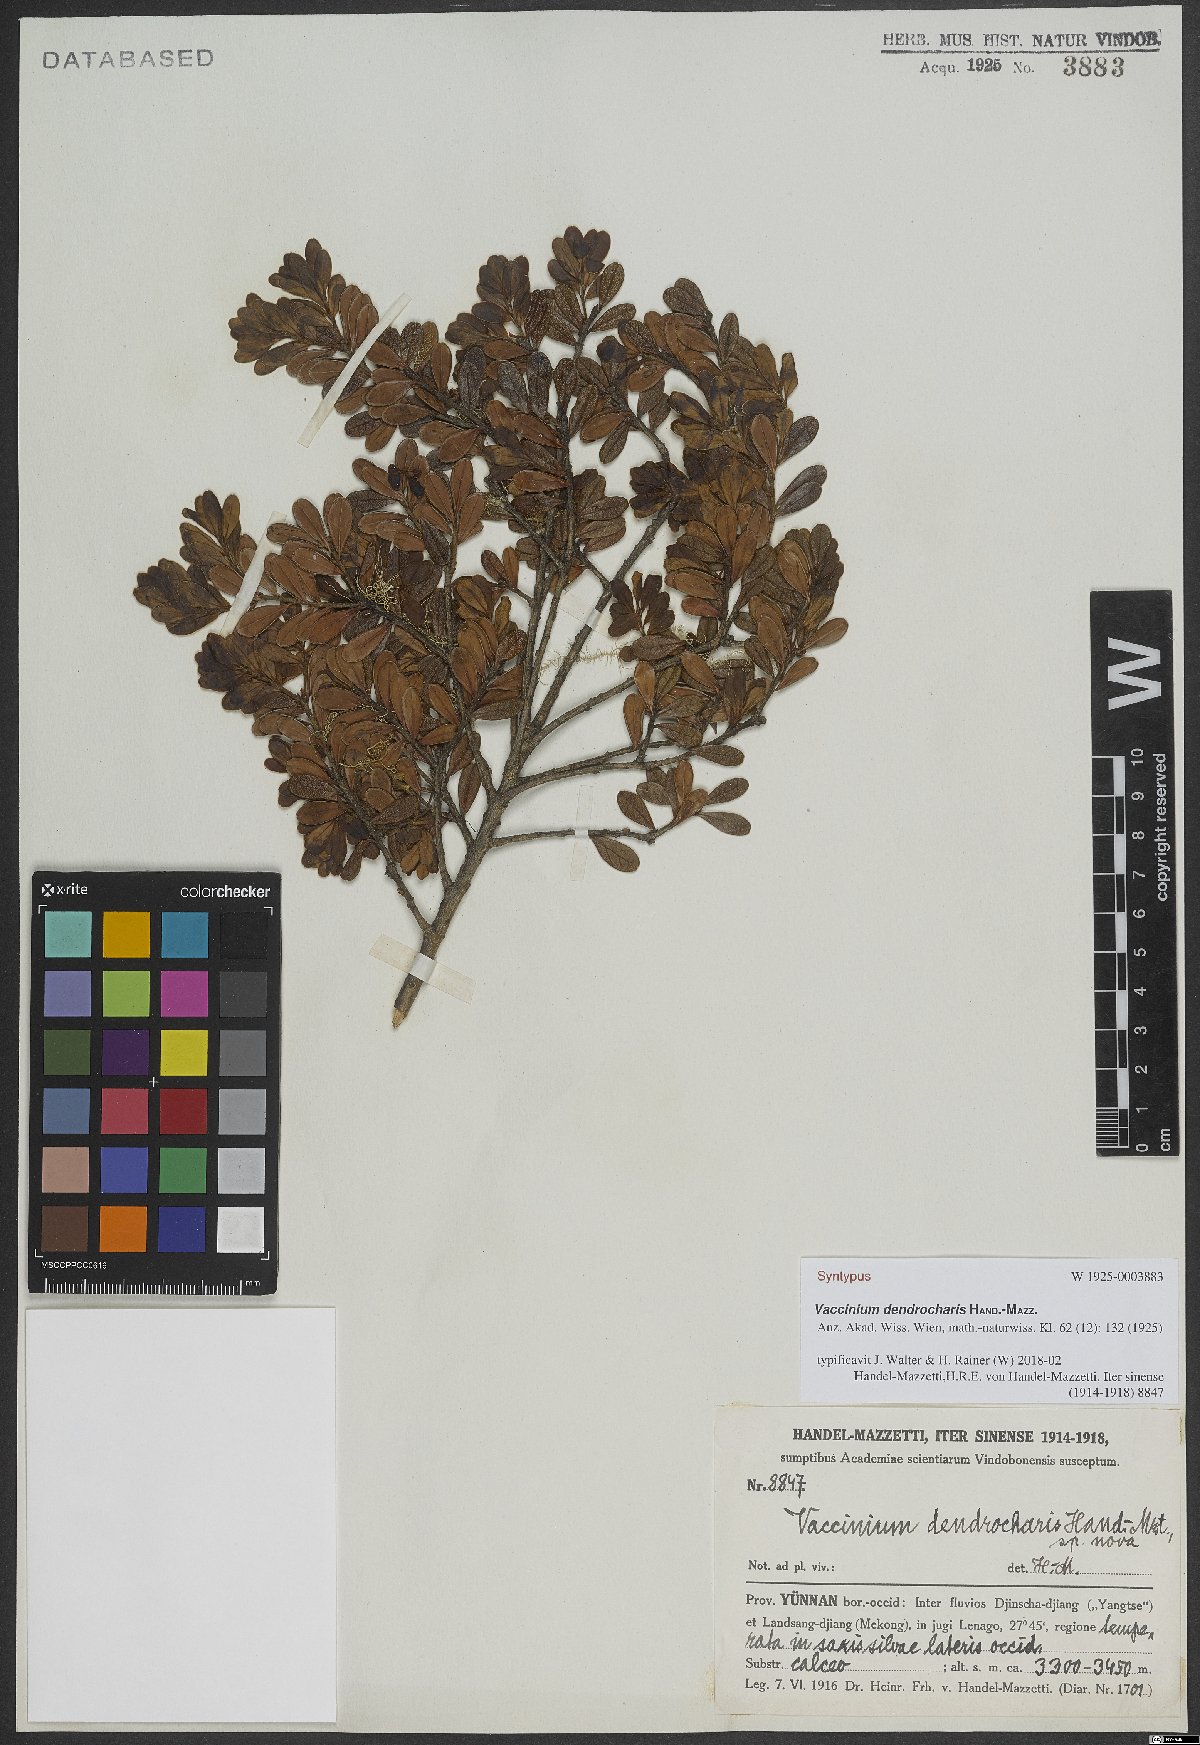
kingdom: Plantae
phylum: Tracheophyta
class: Magnoliopsida
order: Ericales
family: Ericaceae
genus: Vaccinium
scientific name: Vaccinium dendrocharis
